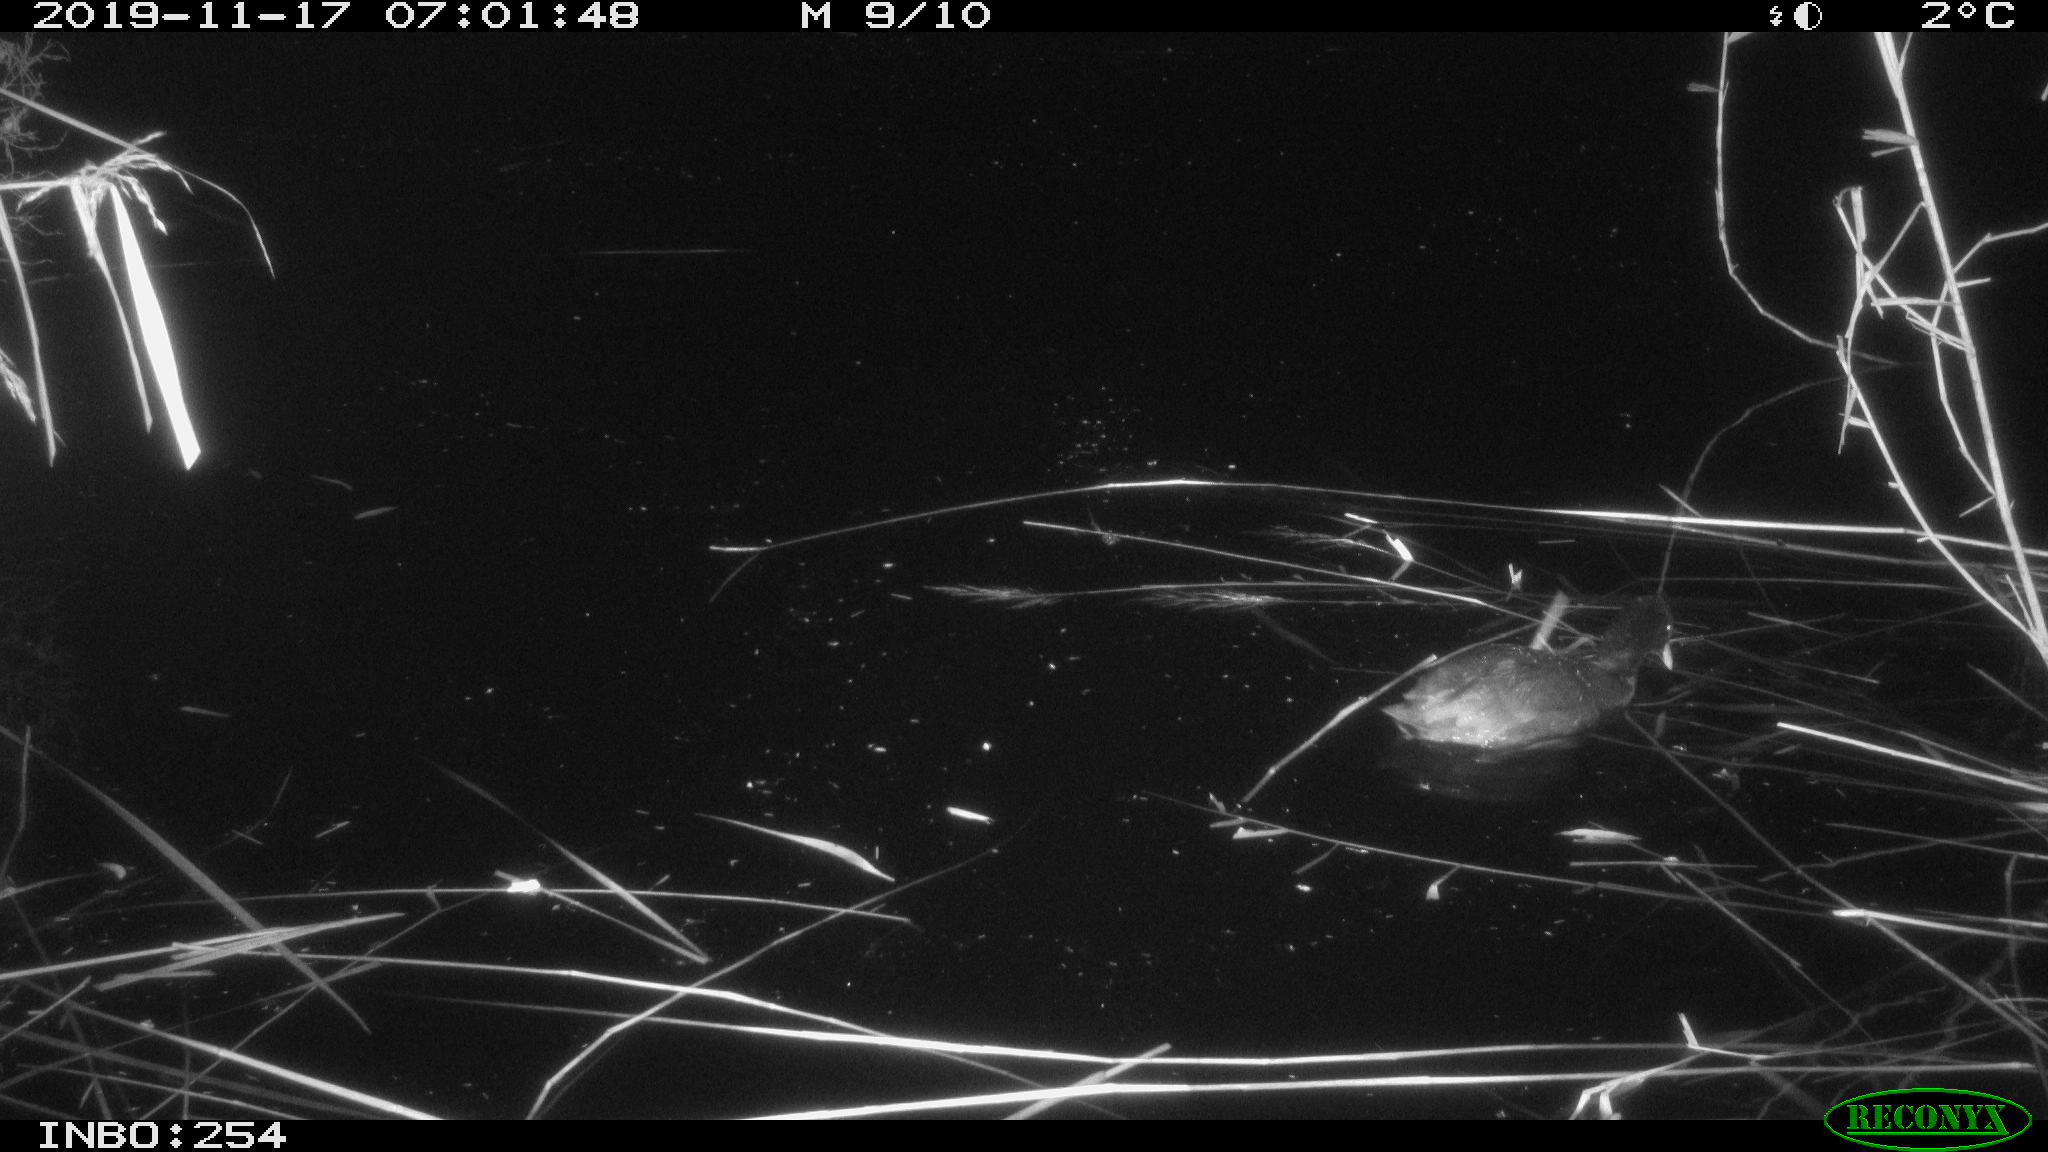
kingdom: Animalia
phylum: Chordata
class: Aves
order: Gruiformes
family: Rallidae
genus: Gallinula
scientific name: Gallinula chloropus
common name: Common moorhen
